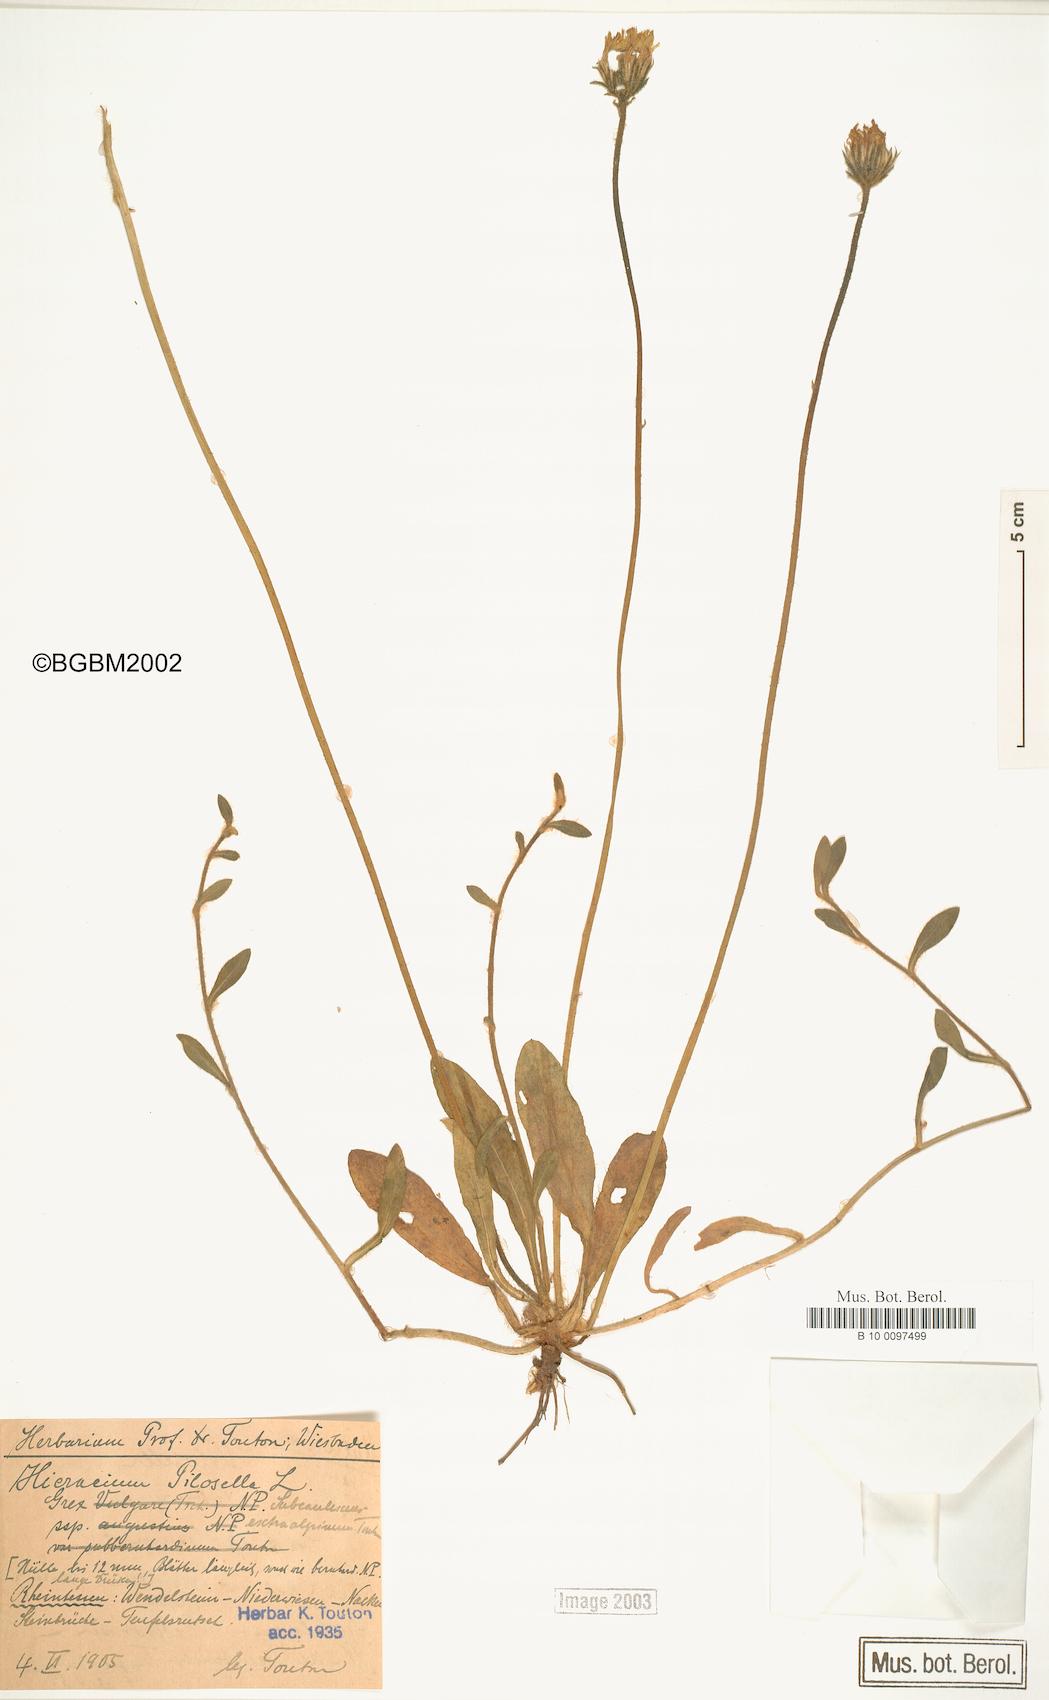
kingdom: Plantae
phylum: Tracheophyta
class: Magnoliopsida
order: Asterales
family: Asteraceae
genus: Pilosella
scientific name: Pilosella officinarum
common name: Mouse-ear hawkweed
